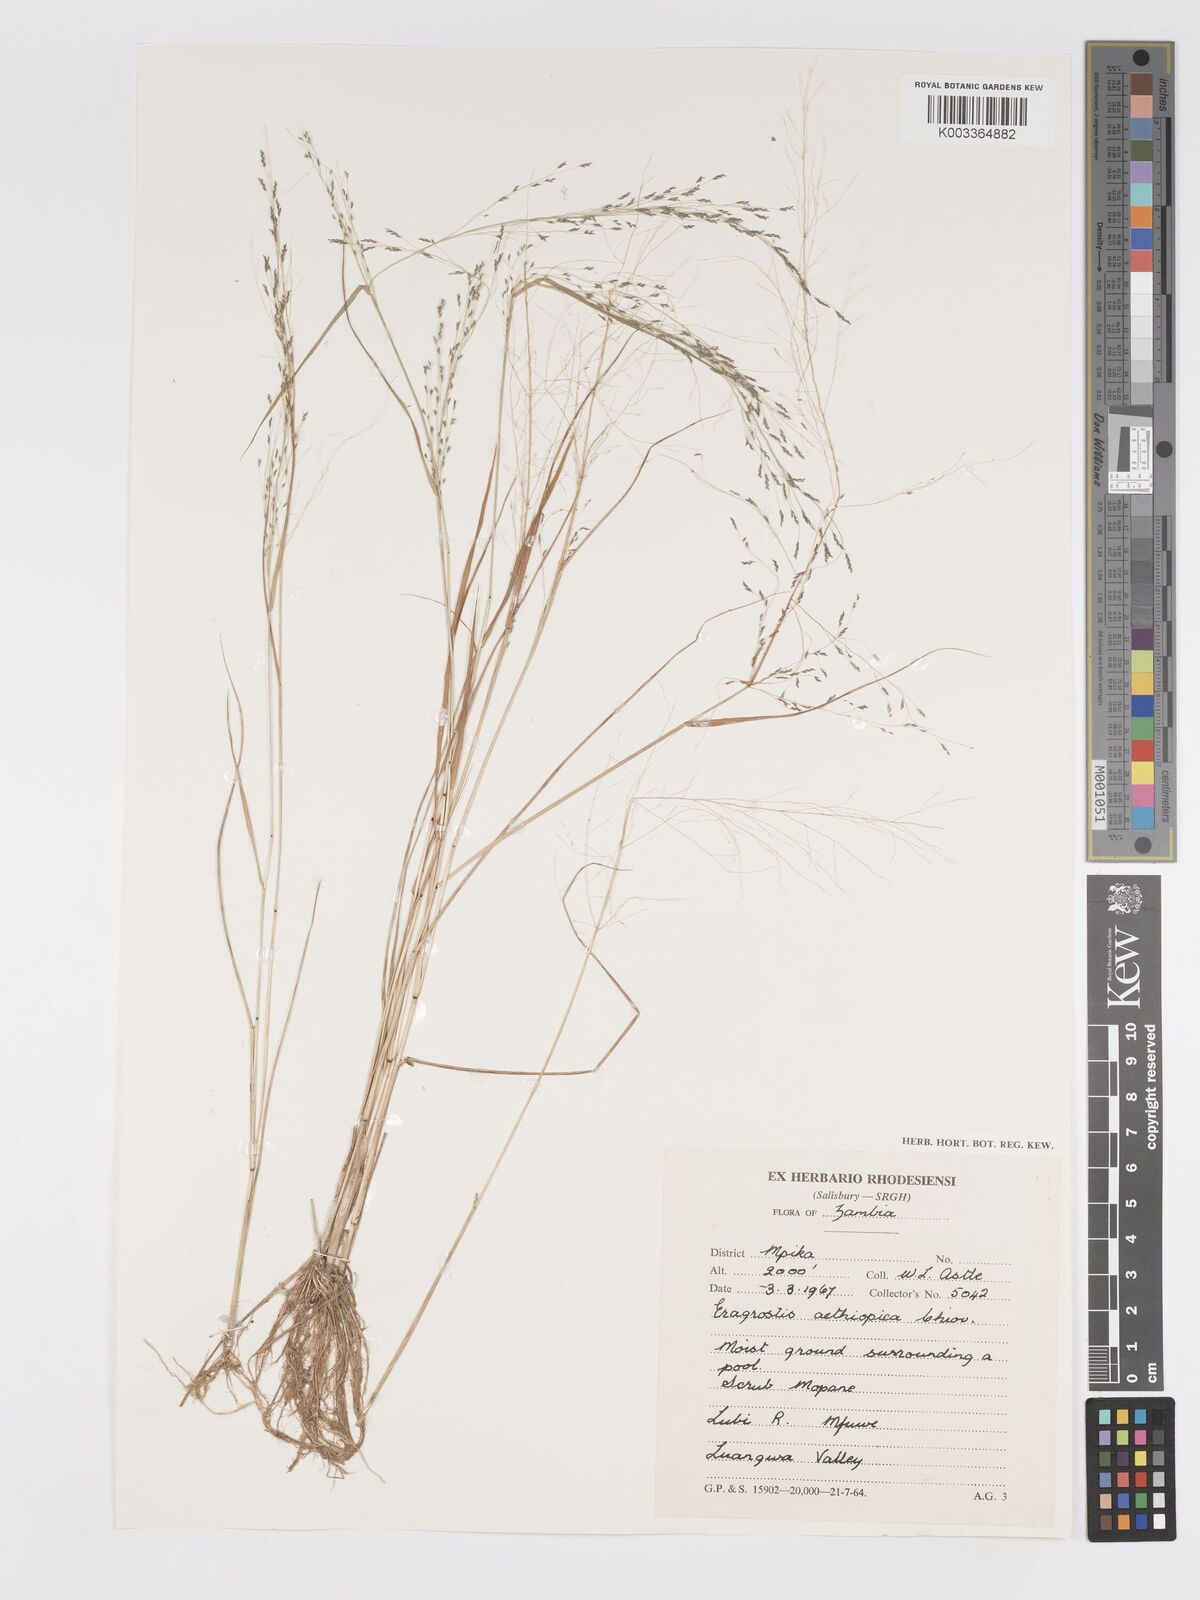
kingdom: Plantae
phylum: Tracheophyta
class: Liliopsida
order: Poales
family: Poaceae
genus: Eragrostis
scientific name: Eragrostis pilosa
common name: Indian lovegrass
